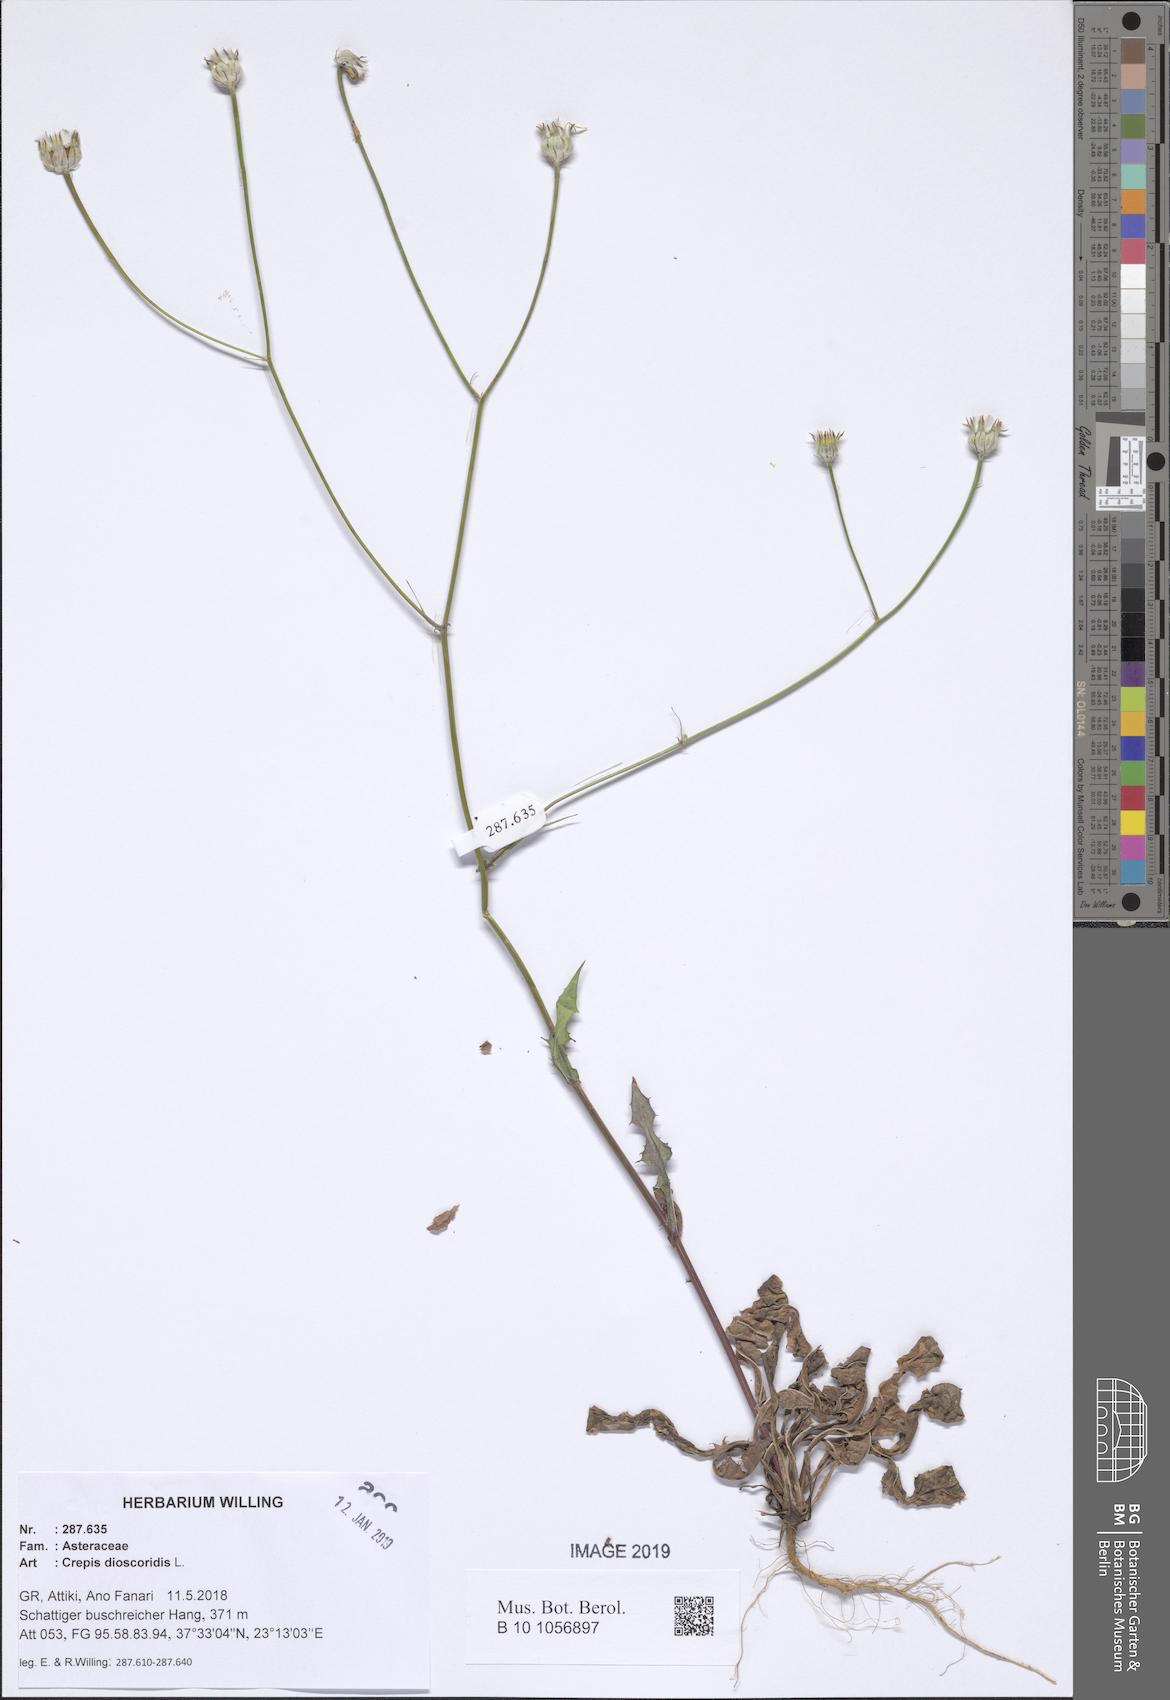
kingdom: Plantae
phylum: Tracheophyta
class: Magnoliopsida
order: Asterales
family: Asteraceae
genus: Crepis
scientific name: Crepis dioscoridis
